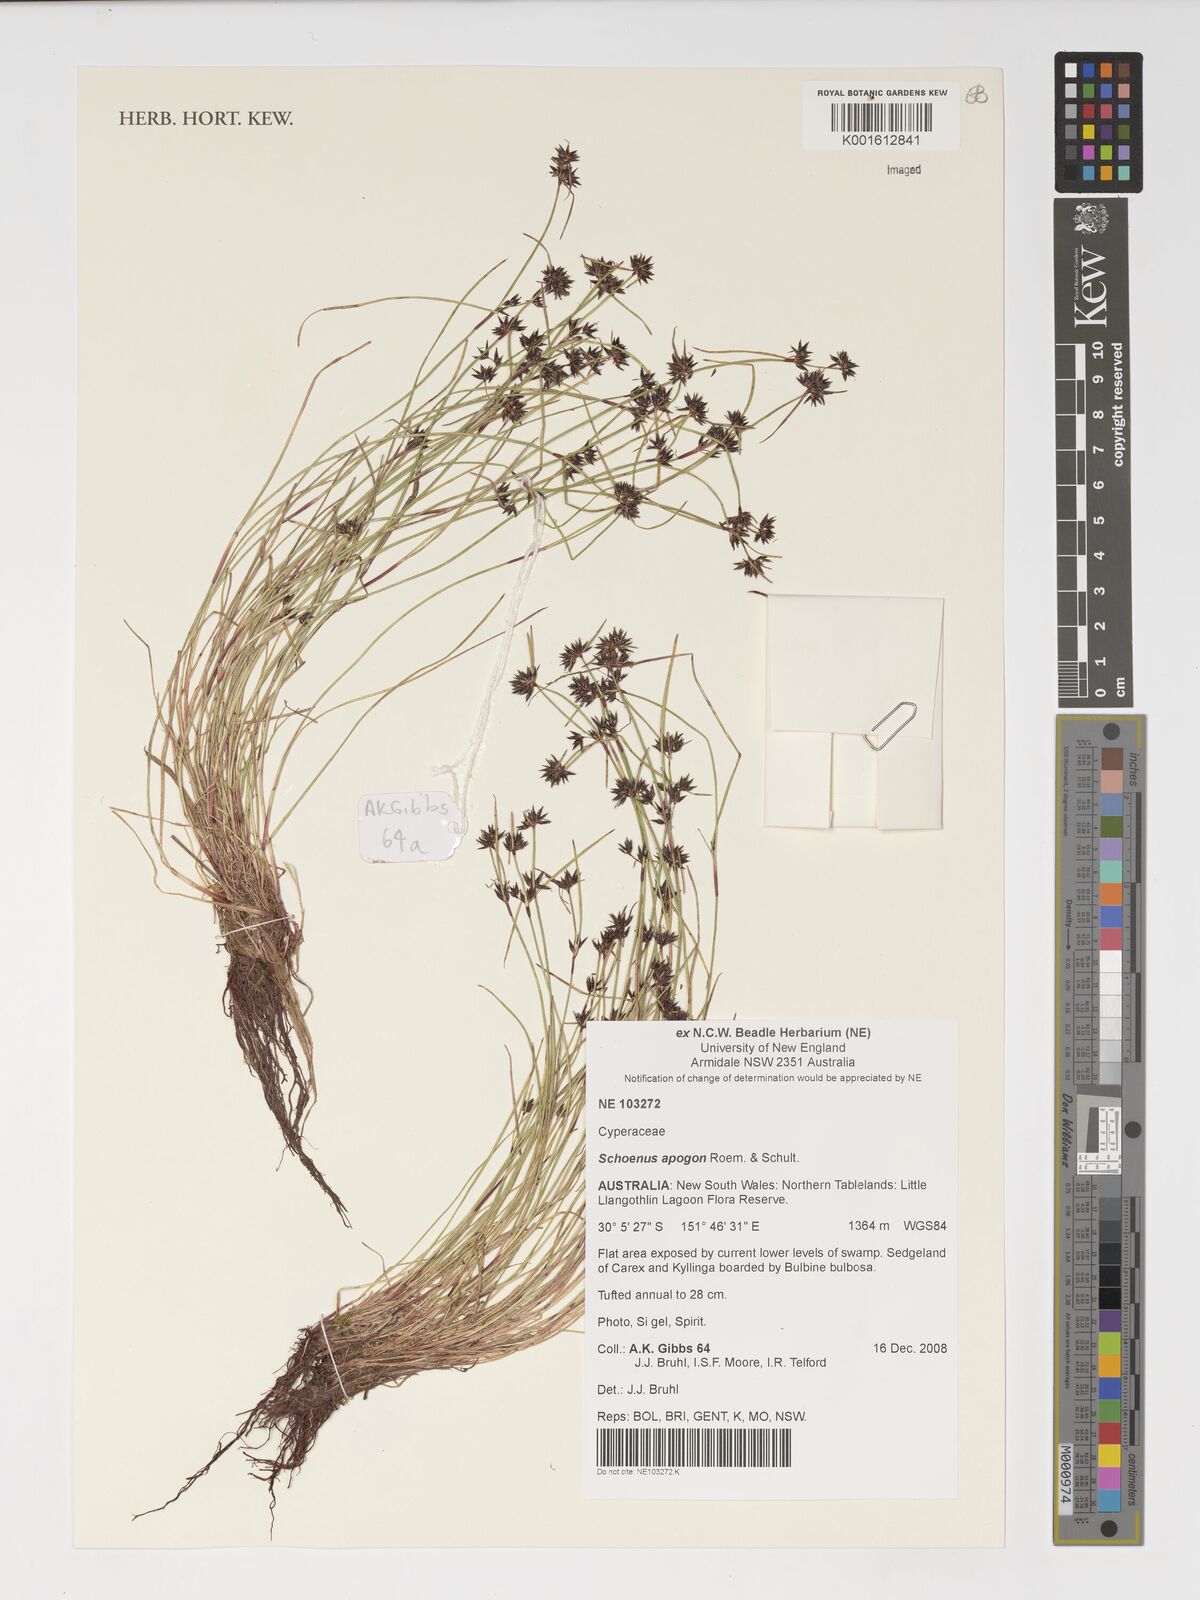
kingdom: Plantae
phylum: Tracheophyta
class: Liliopsida
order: Poales
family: Cyperaceae
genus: Schoenus
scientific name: Schoenus apogon
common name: Smooth bogrush
